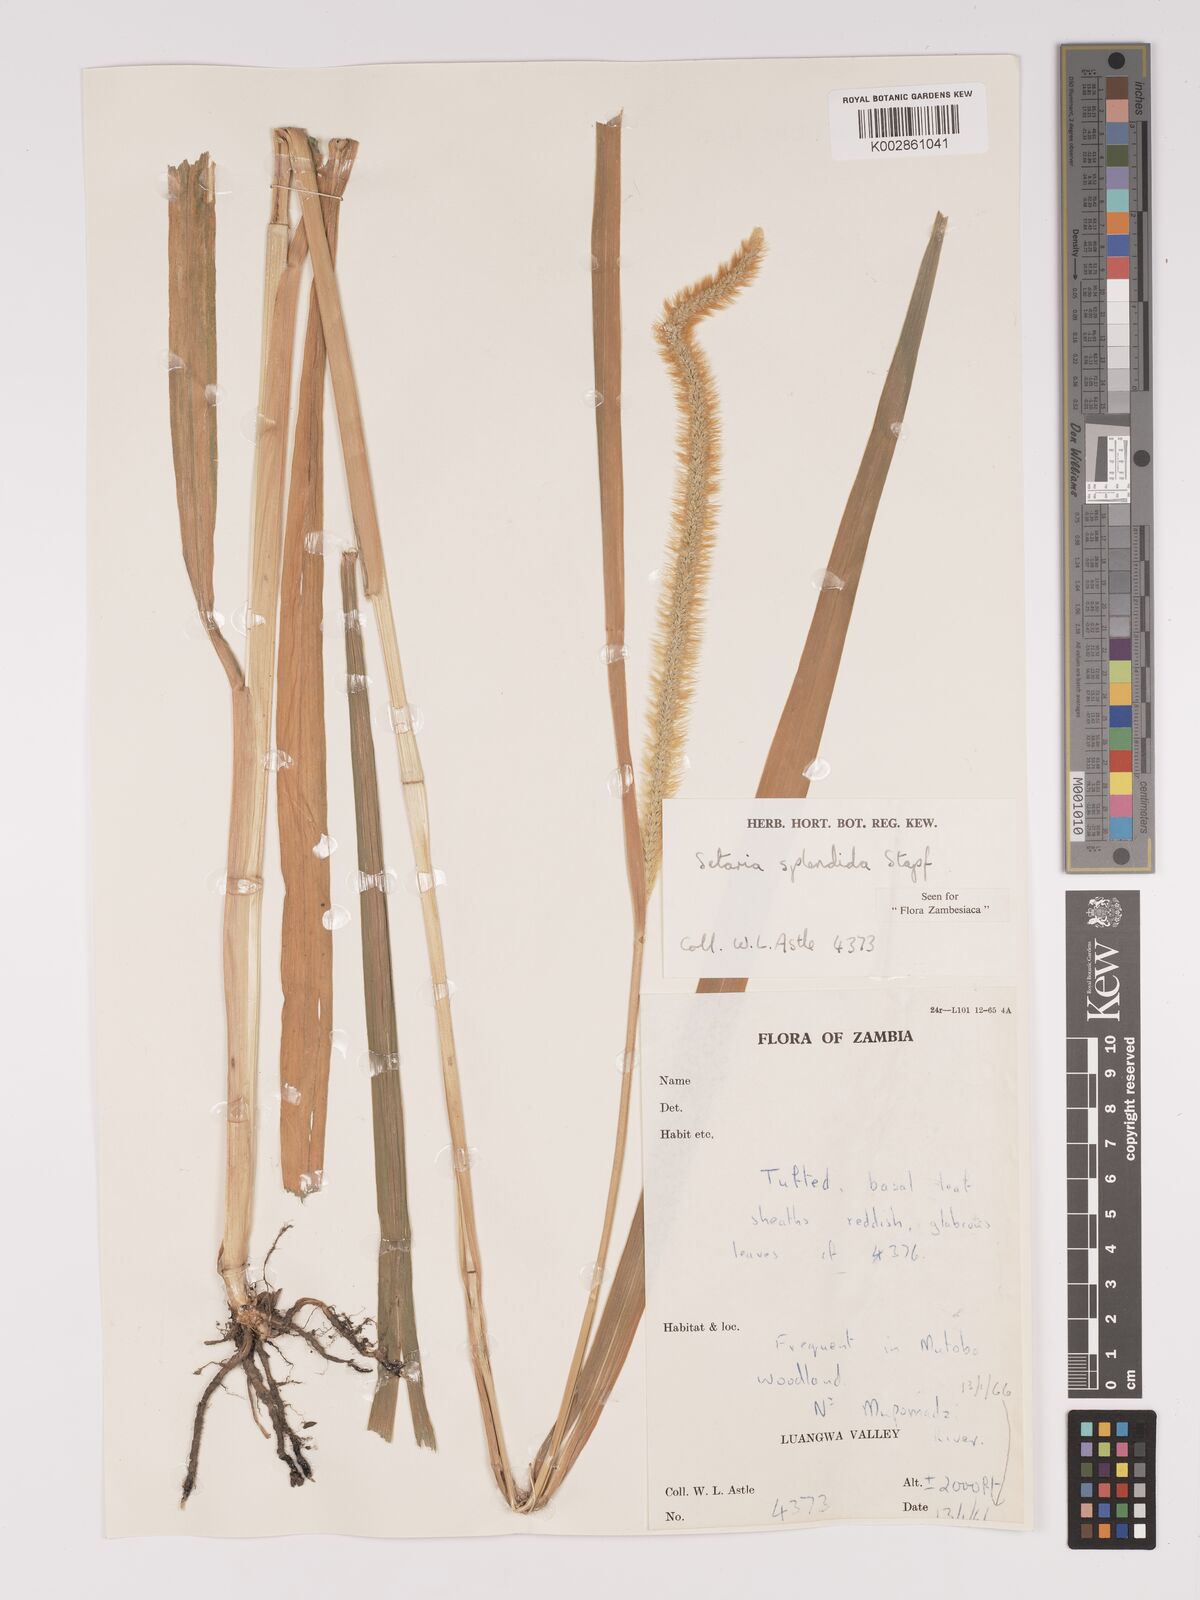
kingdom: Plantae
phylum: Tracheophyta
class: Liliopsida
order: Poales
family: Poaceae
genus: Setaria
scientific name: Setaria sphacelata
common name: African bristlegrass
